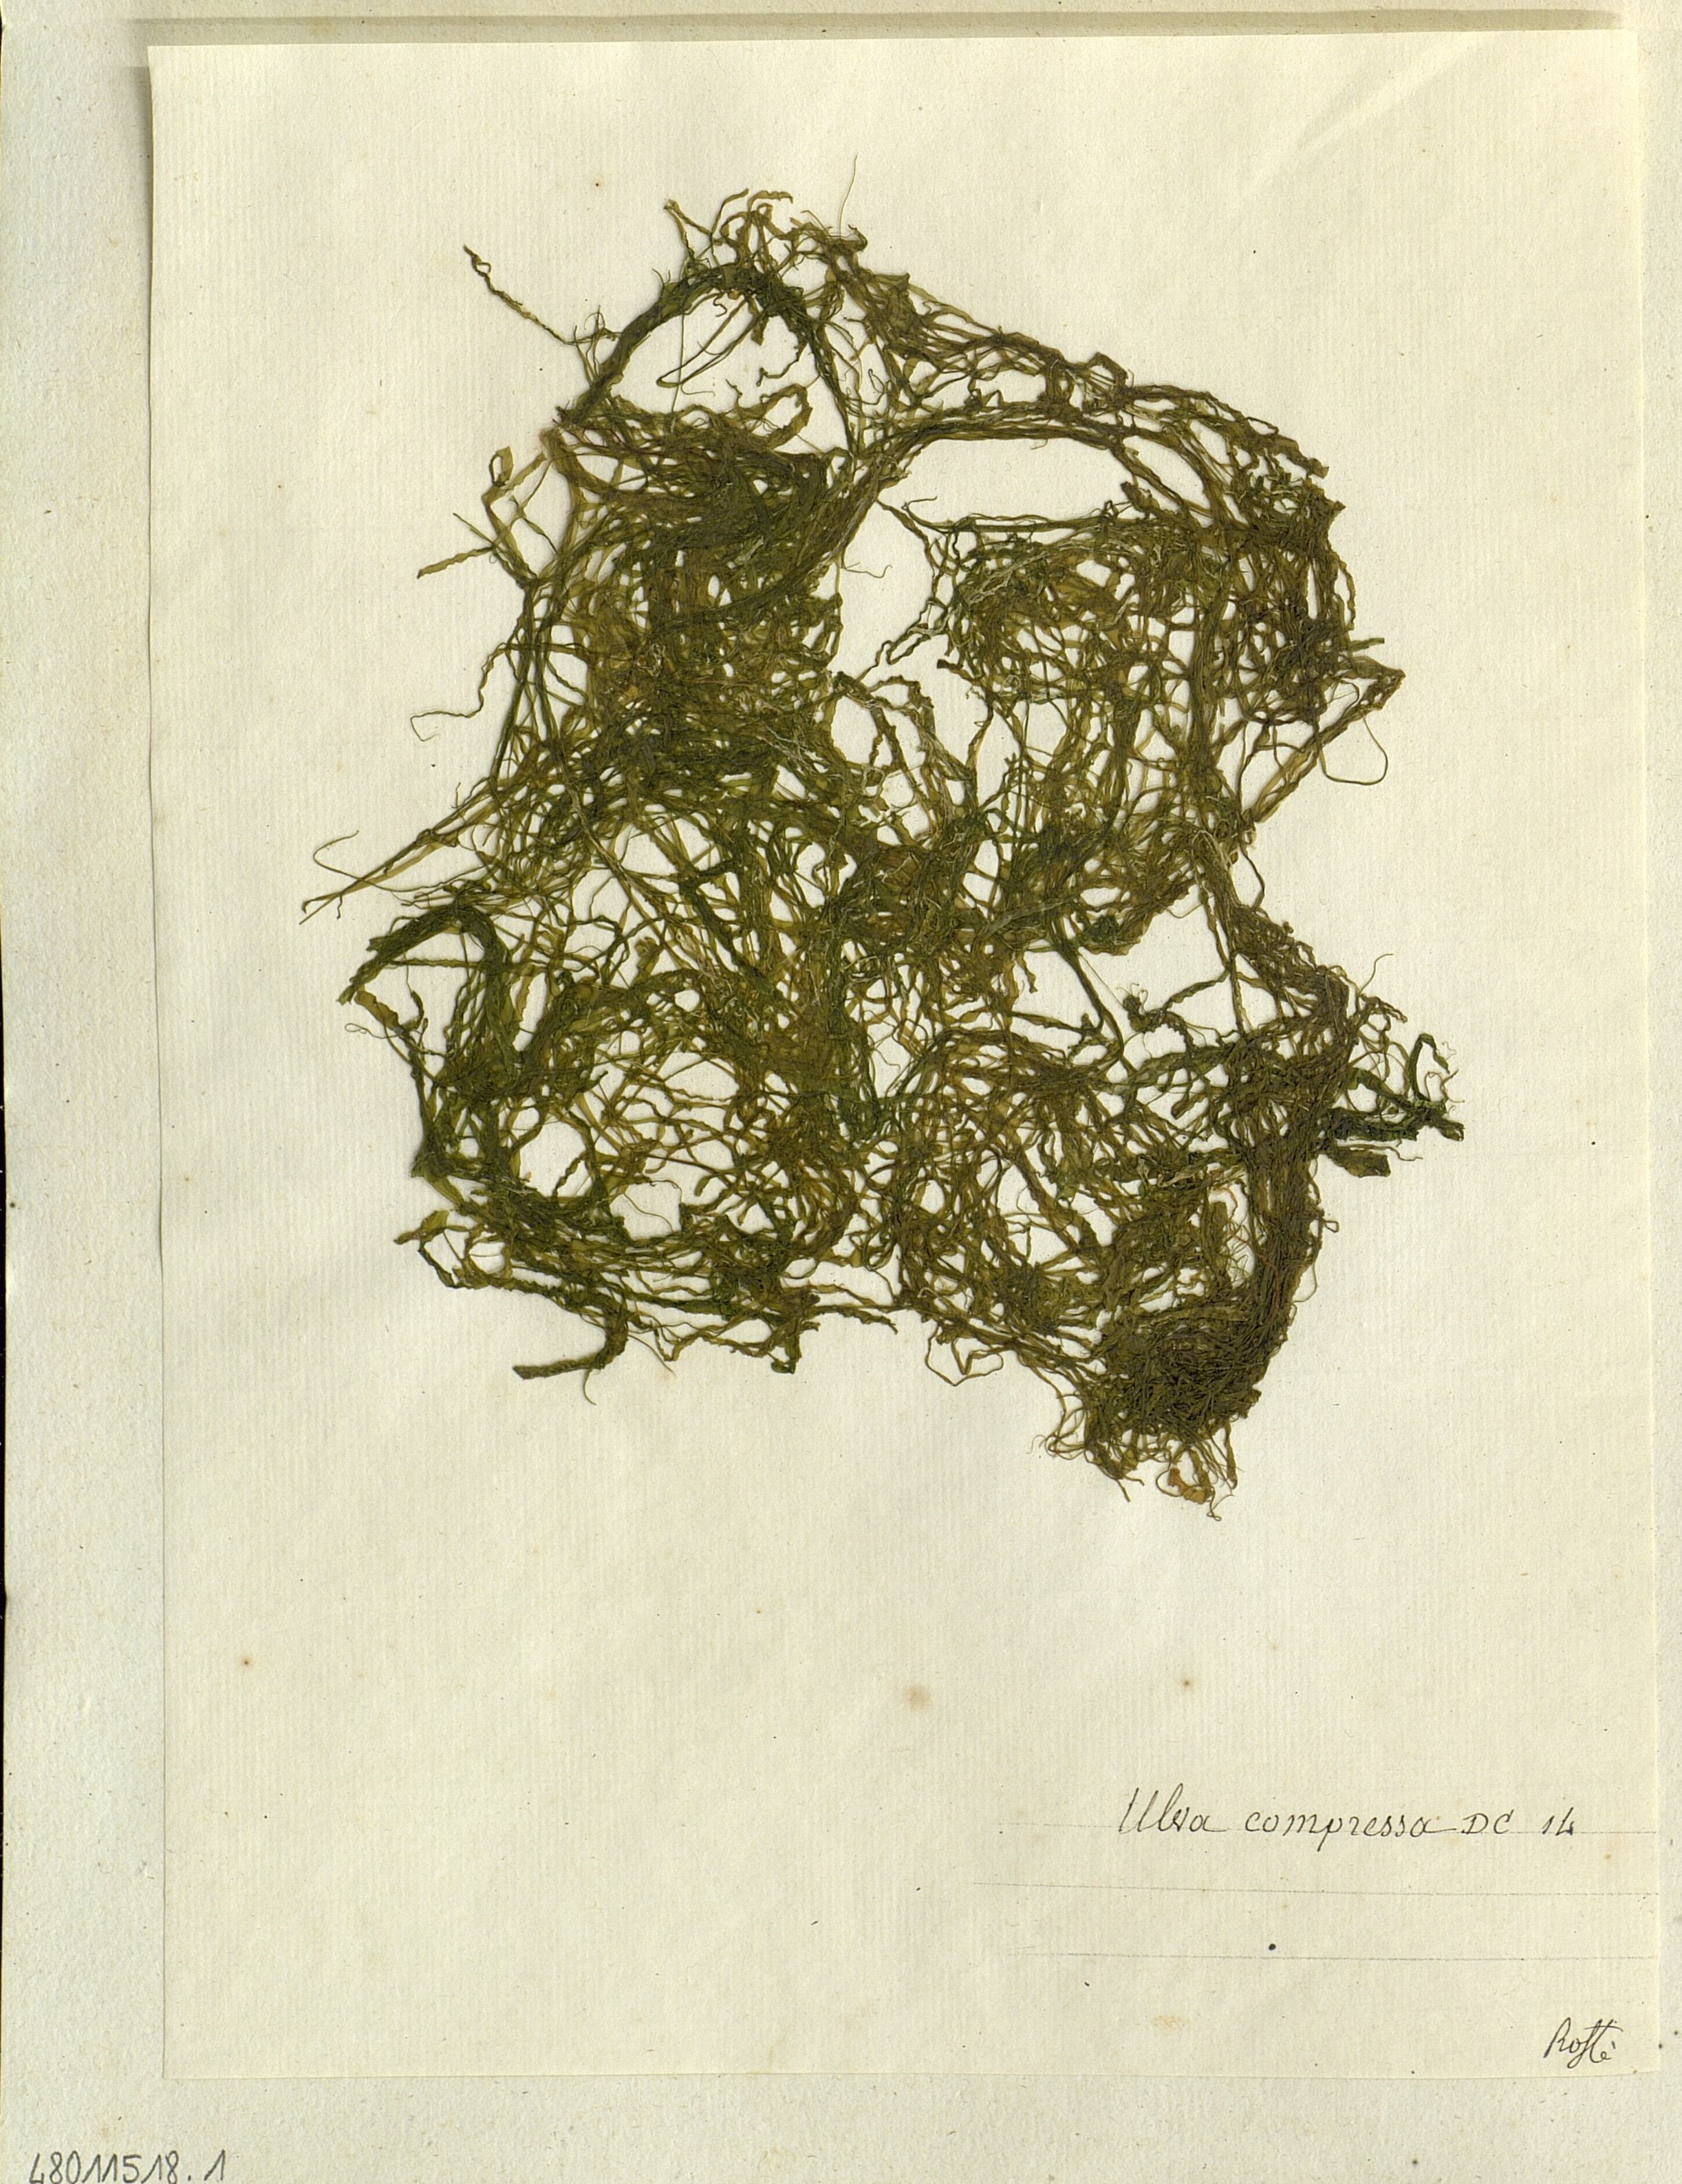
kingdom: Plantae
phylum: Chlorophyta
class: Ulvophyceae
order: Ulvales
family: Ulvaceae
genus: Ulva
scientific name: Ulva compressa
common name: Thread weed
